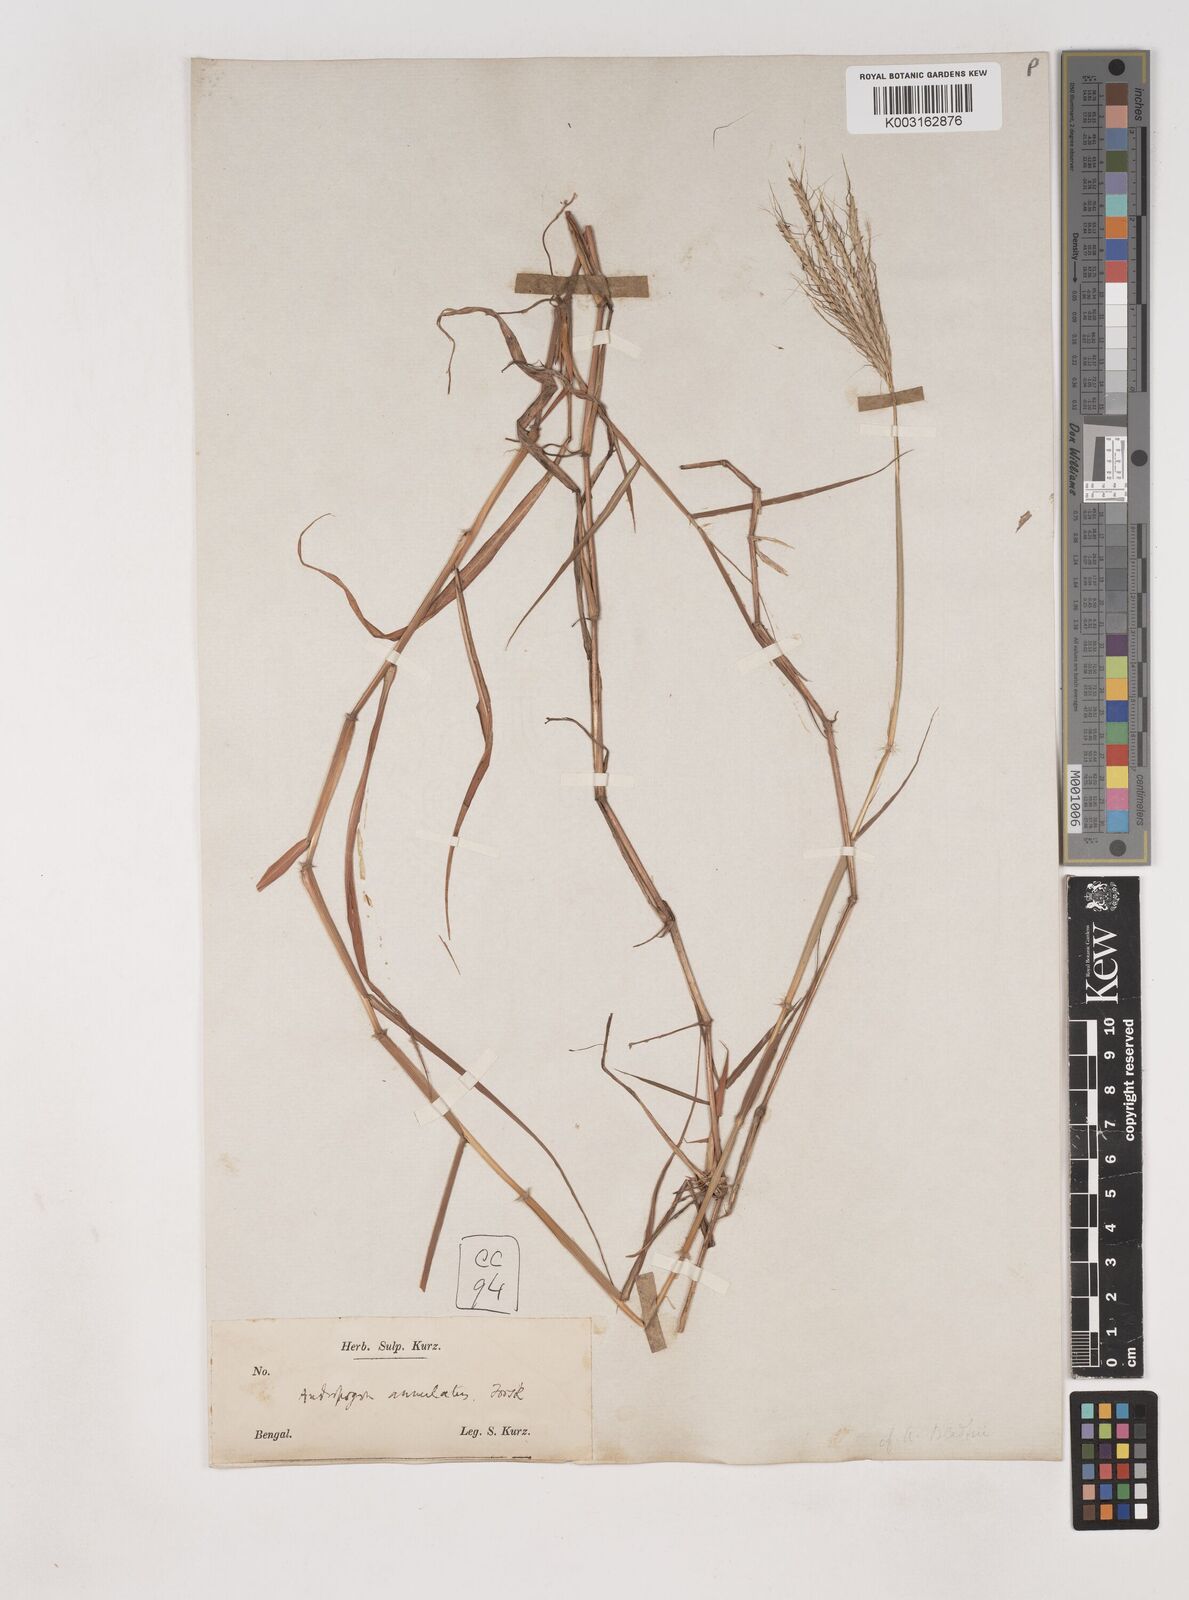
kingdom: Plantae
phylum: Tracheophyta
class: Liliopsida
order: Poales
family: Poaceae
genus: Dichanthium
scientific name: Dichanthium annulatum
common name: Kleberg's bluestem
